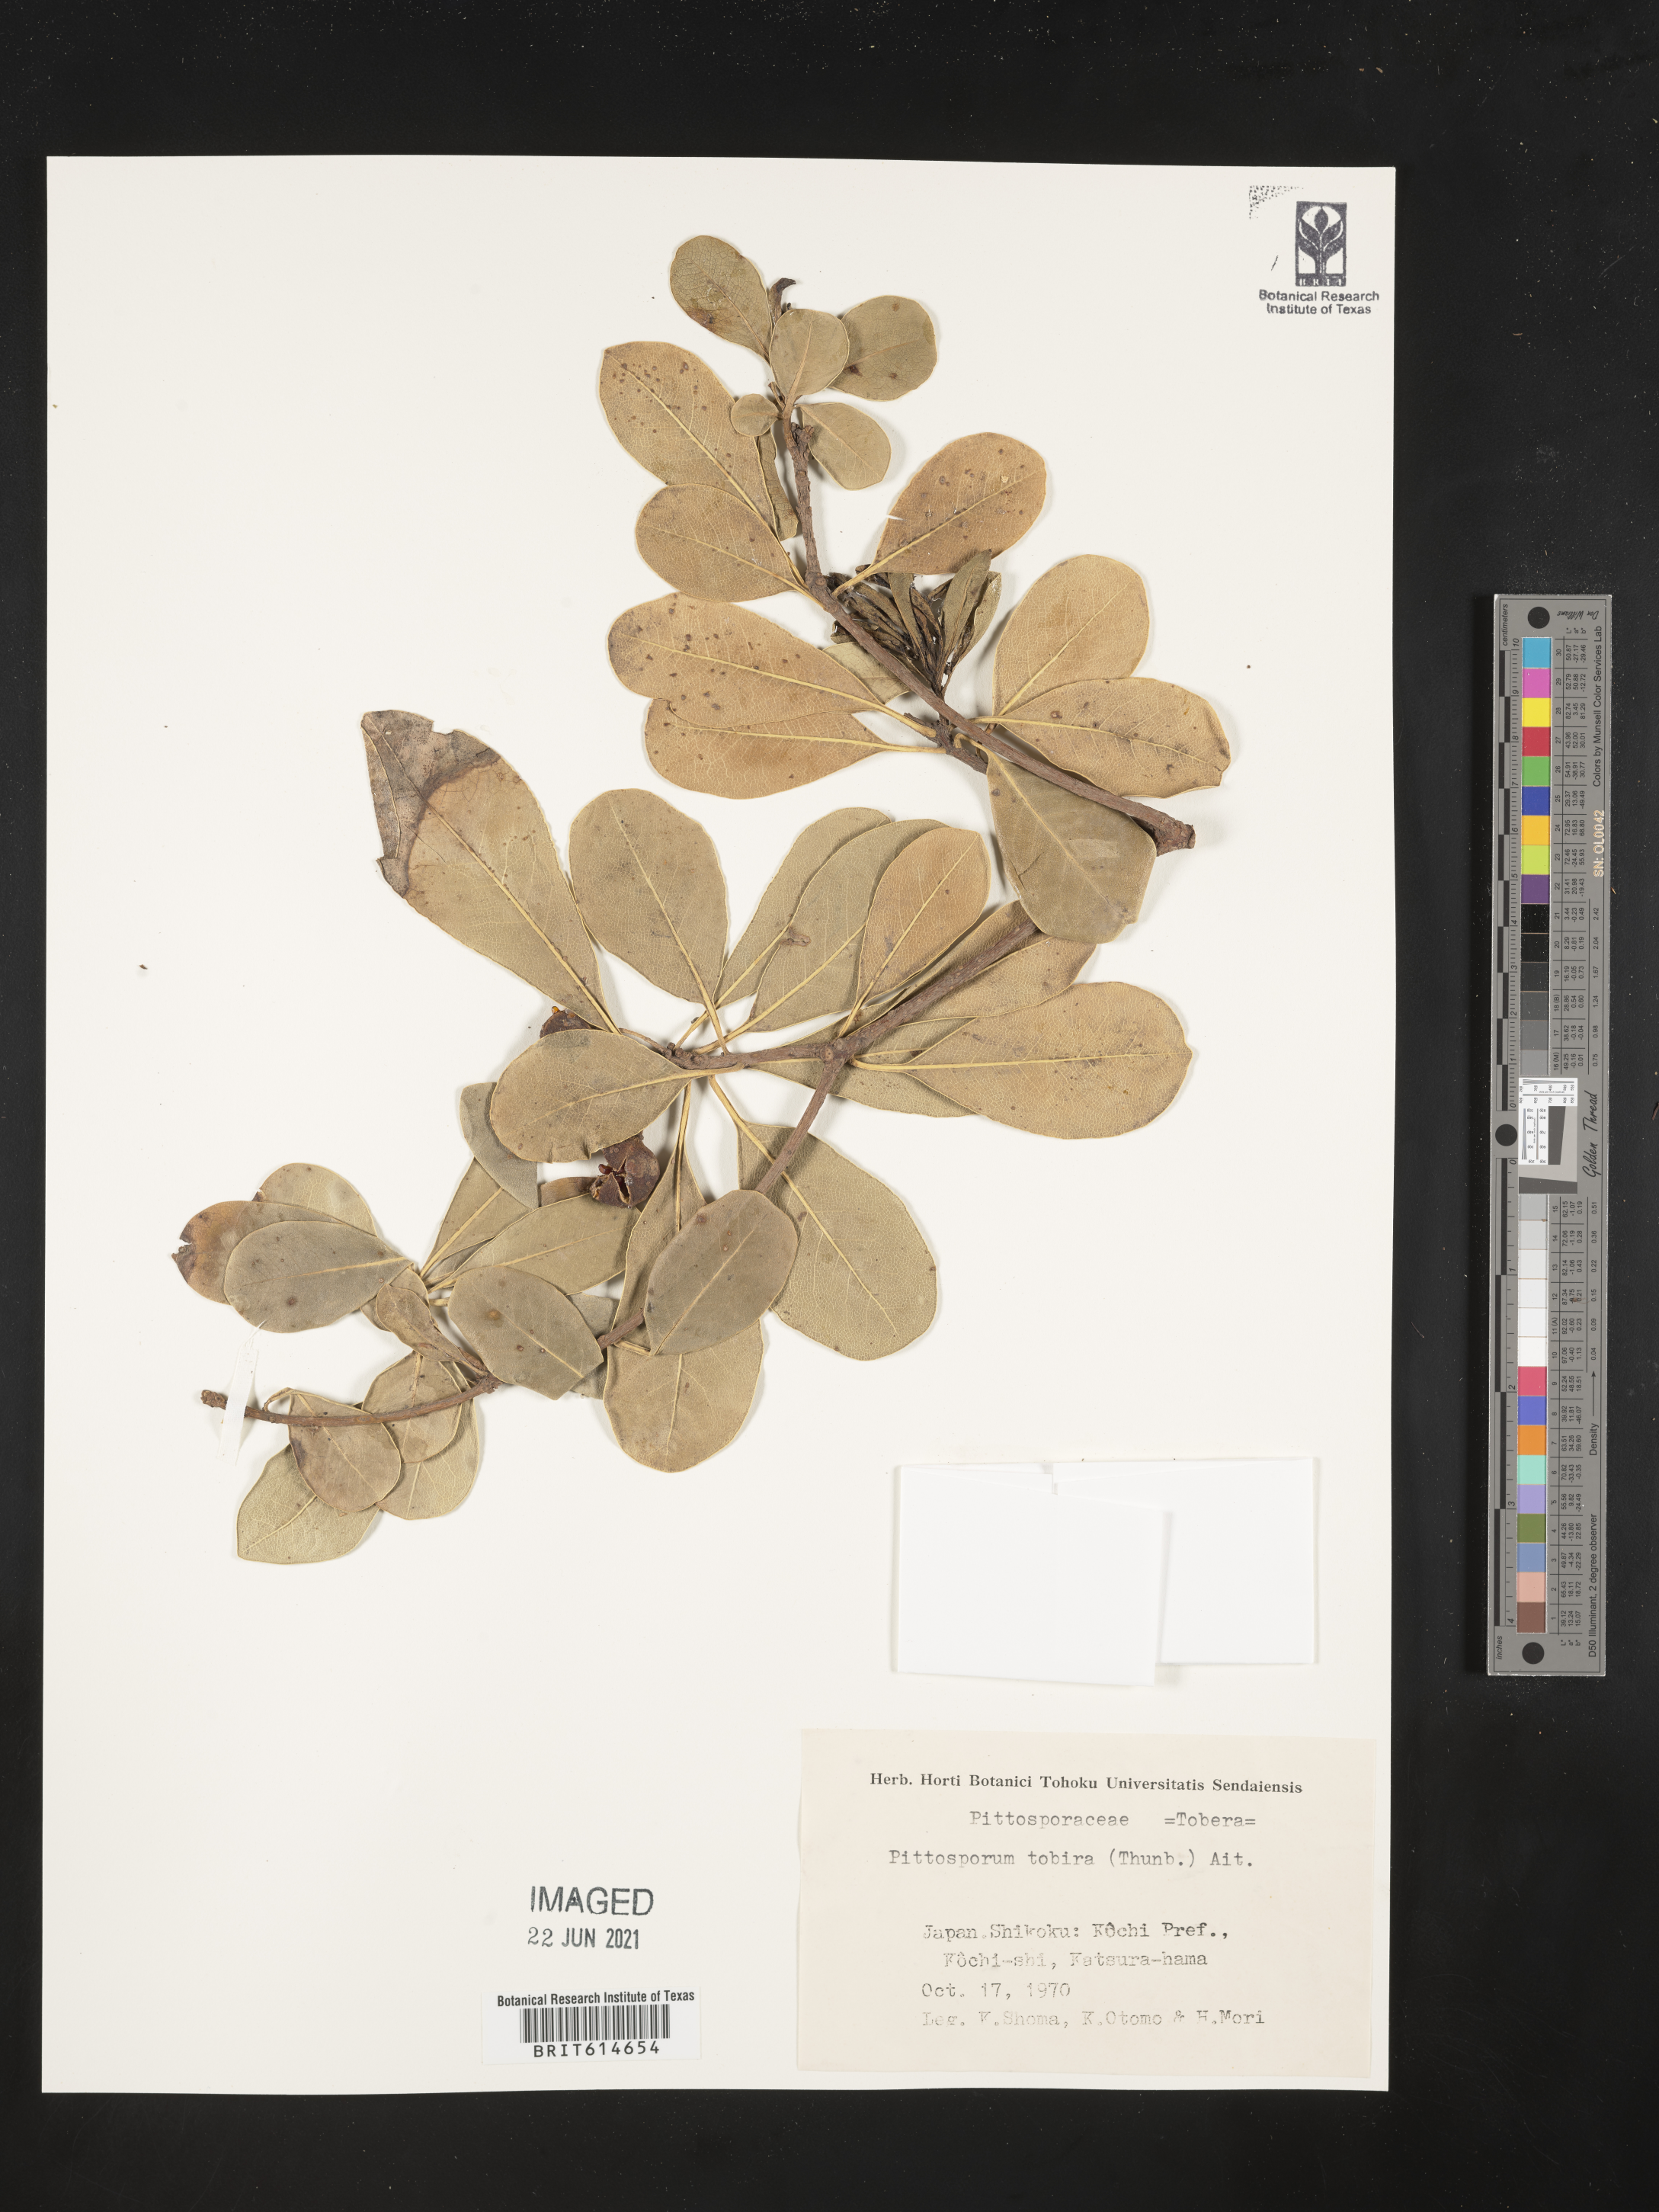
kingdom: Plantae
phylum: Tracheophyta
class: Magnoliopsida
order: Apiales
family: Pittosporaceae
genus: Pittosporum
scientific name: Pittosporum tobira
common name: Japanese cheesewood
